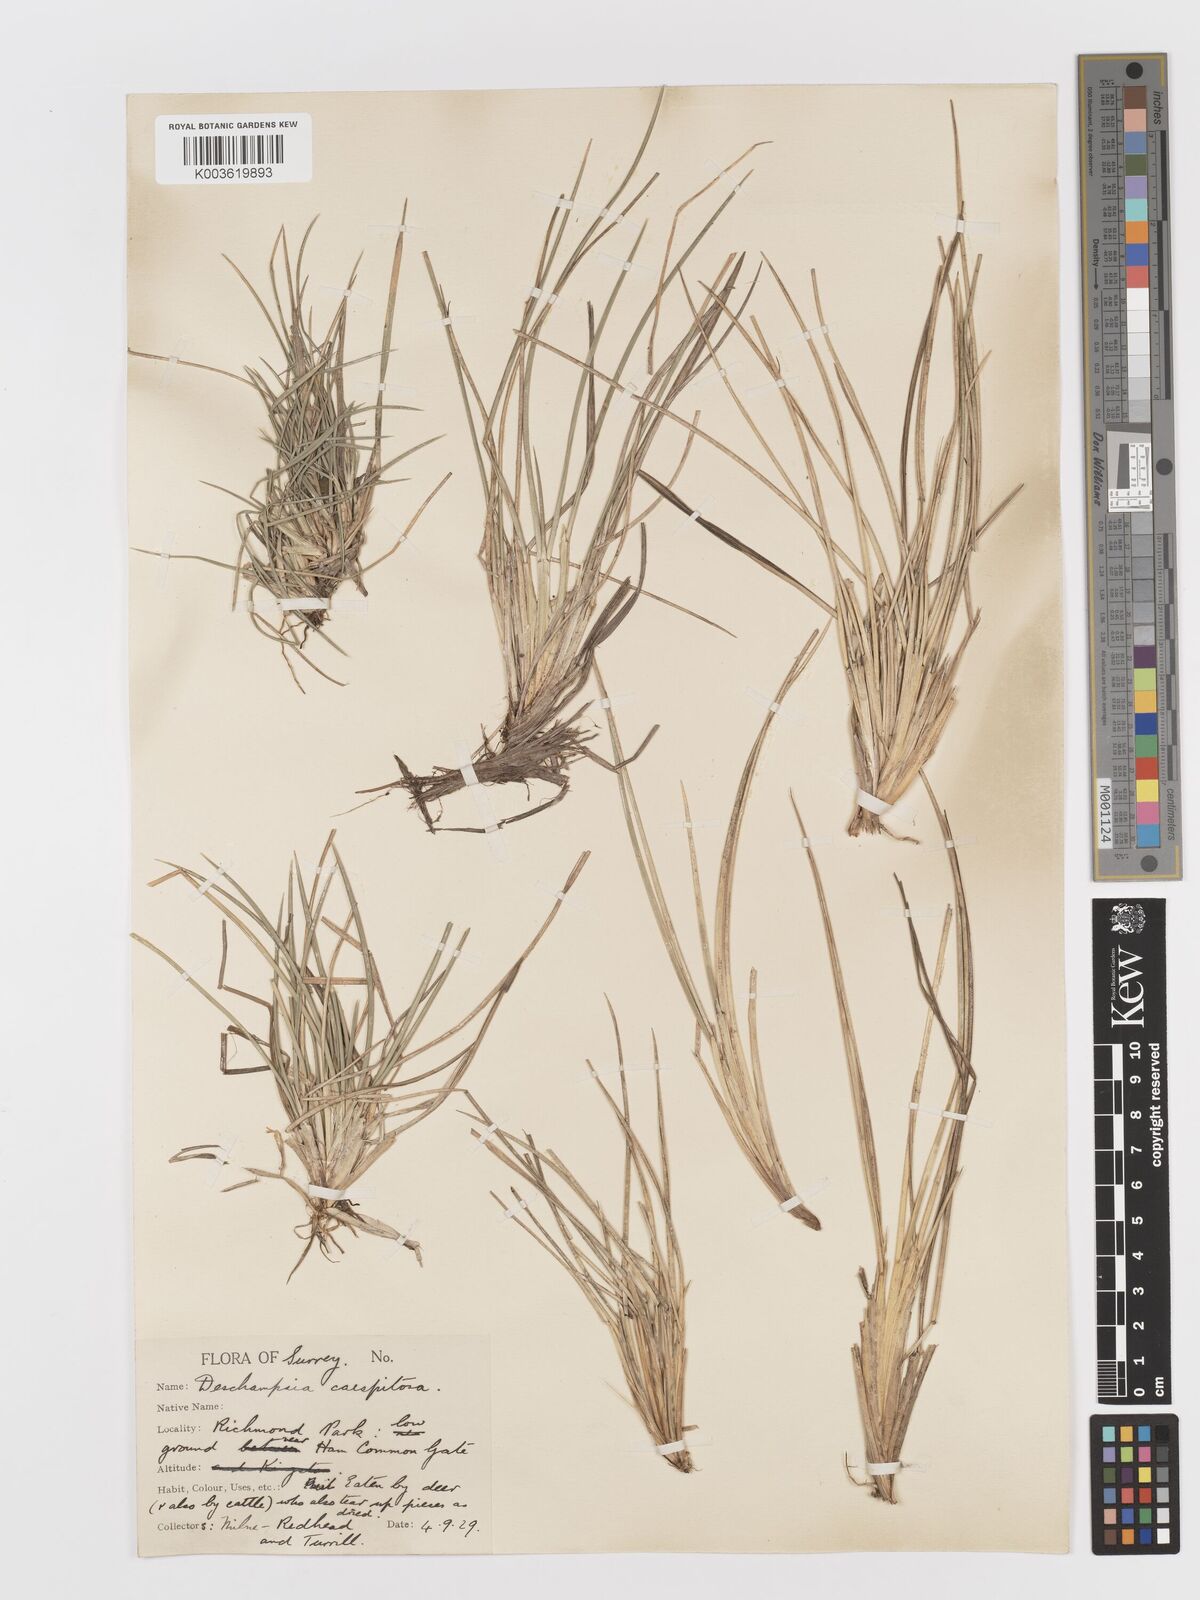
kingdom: Plantae
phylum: Tracheophyta
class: Liliopsida
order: Poales
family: Poaceae
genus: Deschampsia
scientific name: Deschampsia
